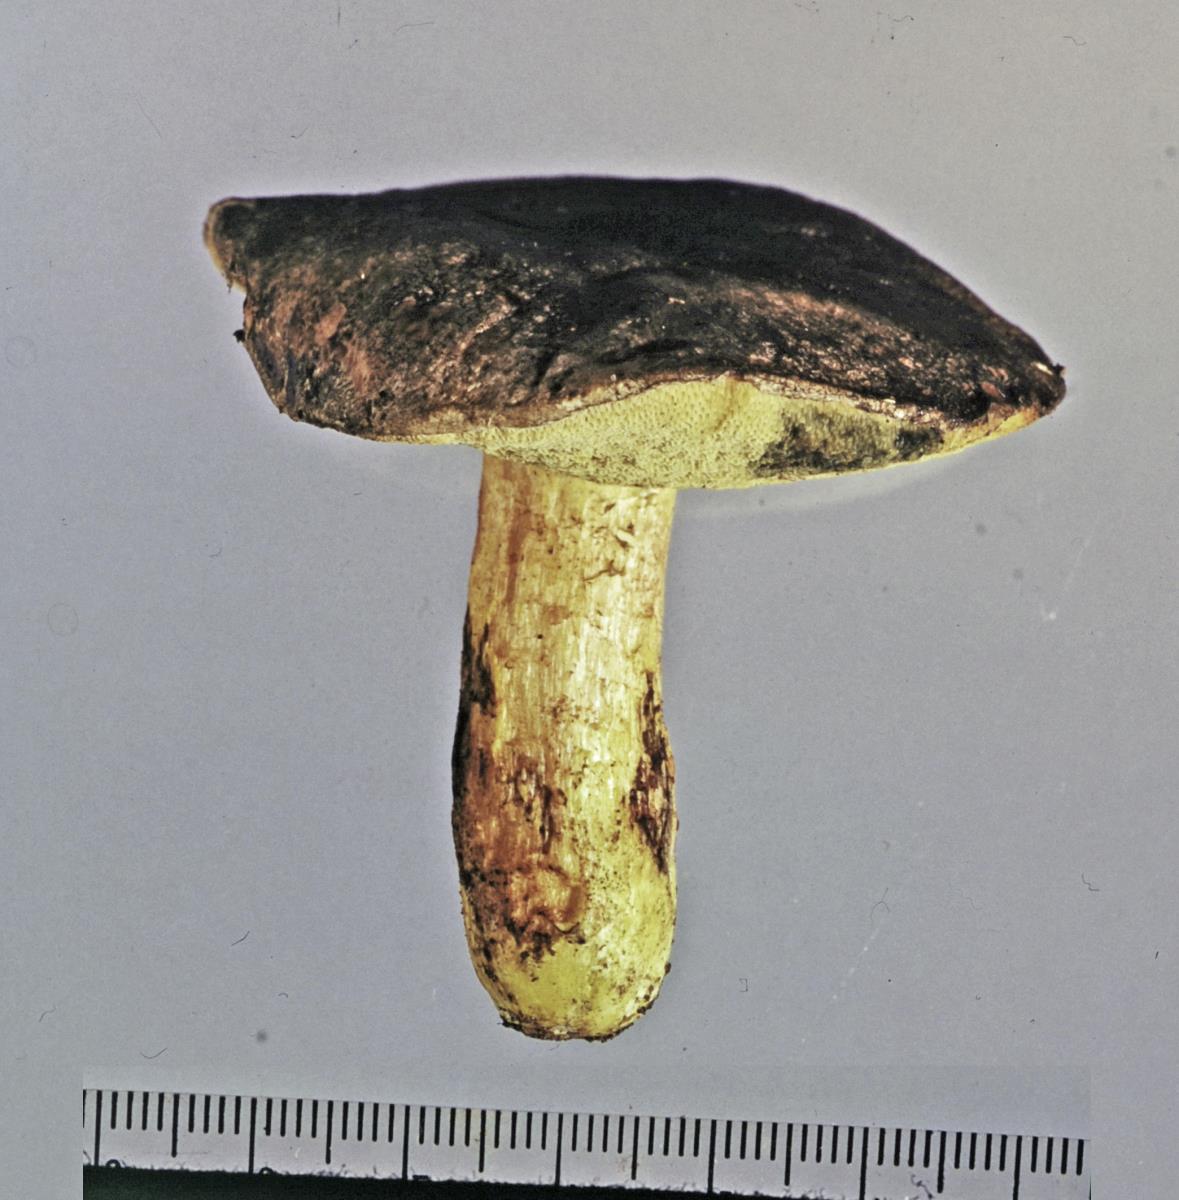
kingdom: Fungi
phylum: Basidiomycota
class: Agaricomycetes
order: Boletales
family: Boletaceae
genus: Xerocomus
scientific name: Xerocomus leptospermi
